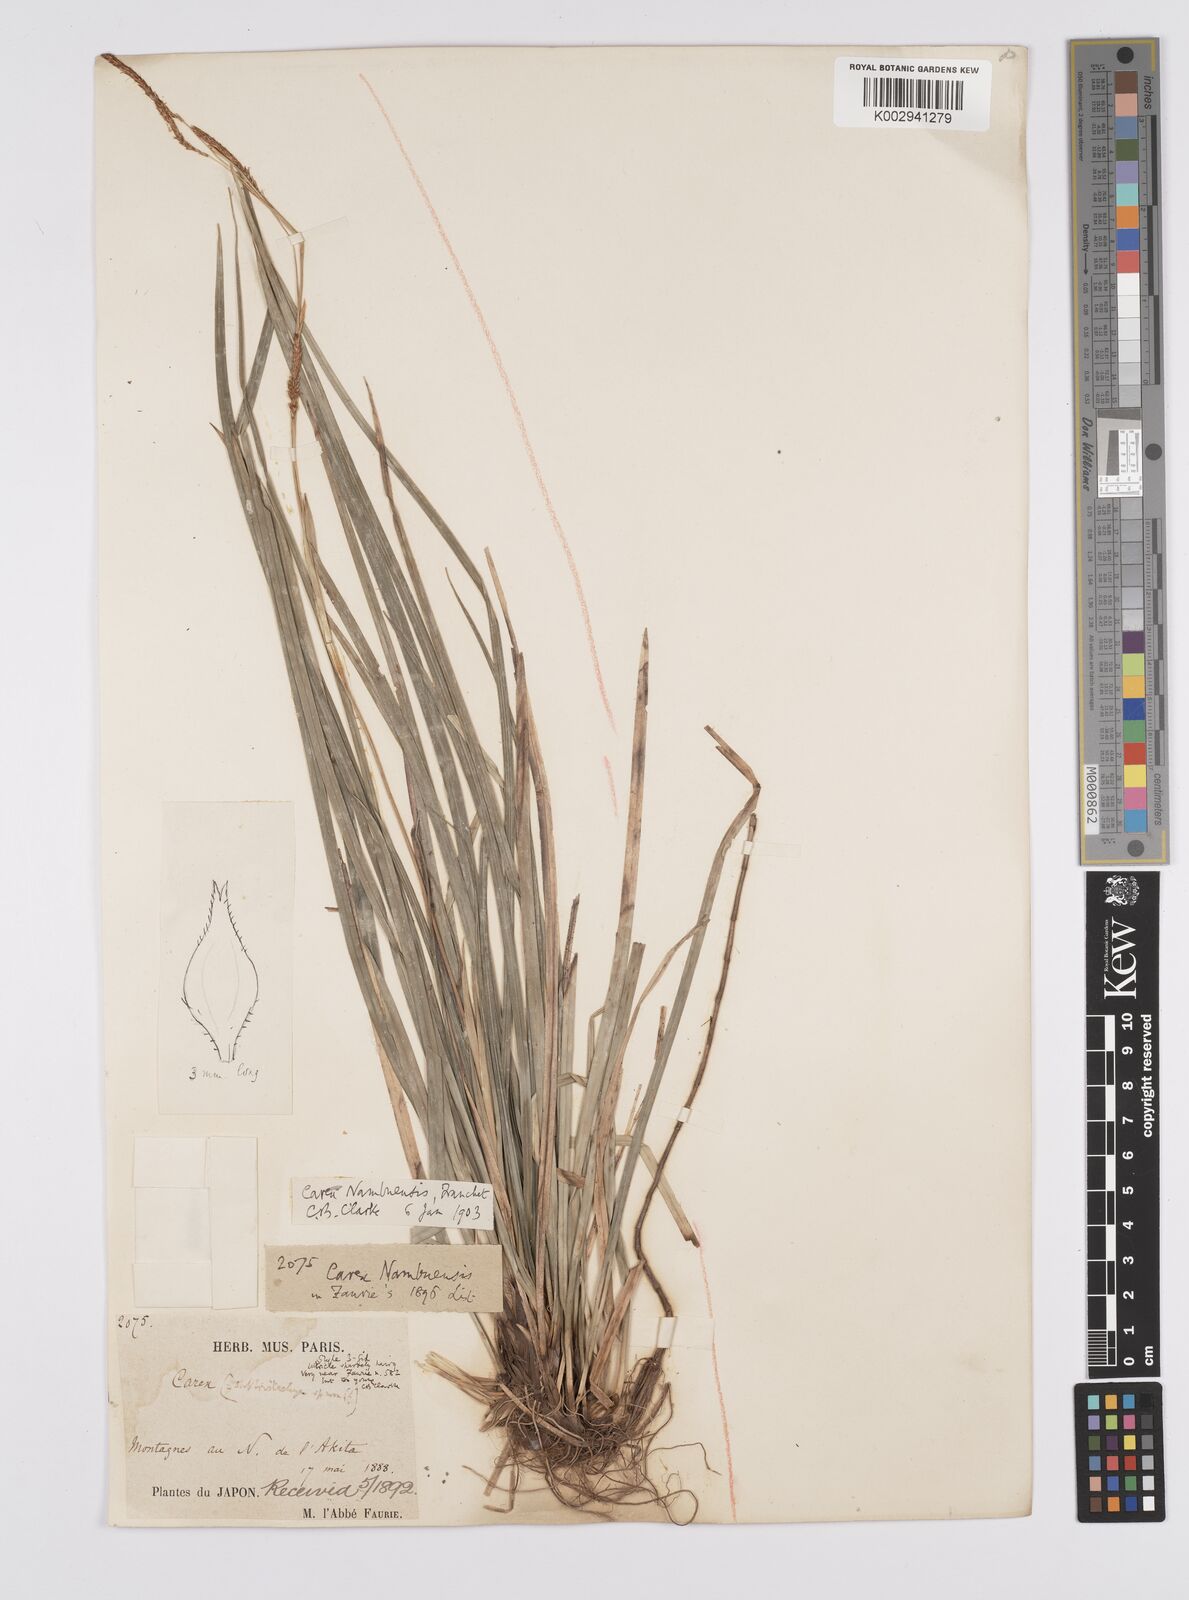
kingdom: Plantae
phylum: Tracheophyta
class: Liliopsida
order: Poales
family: Cyperaceae
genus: Carex
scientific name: Carex reinii
